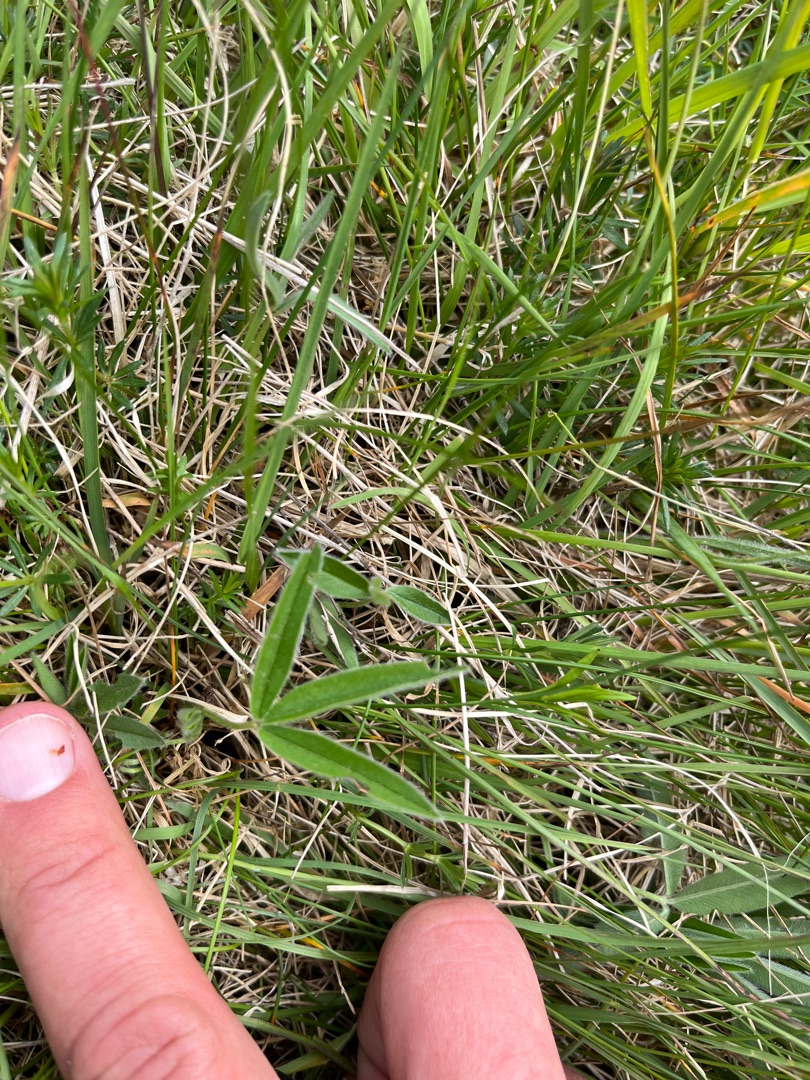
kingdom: Plantae
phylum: Tracheophyta
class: Magnoliopsida
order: Fabales
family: Fabaceae
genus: Trifolium
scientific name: Trifolium alpestre
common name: Skov-kløver
